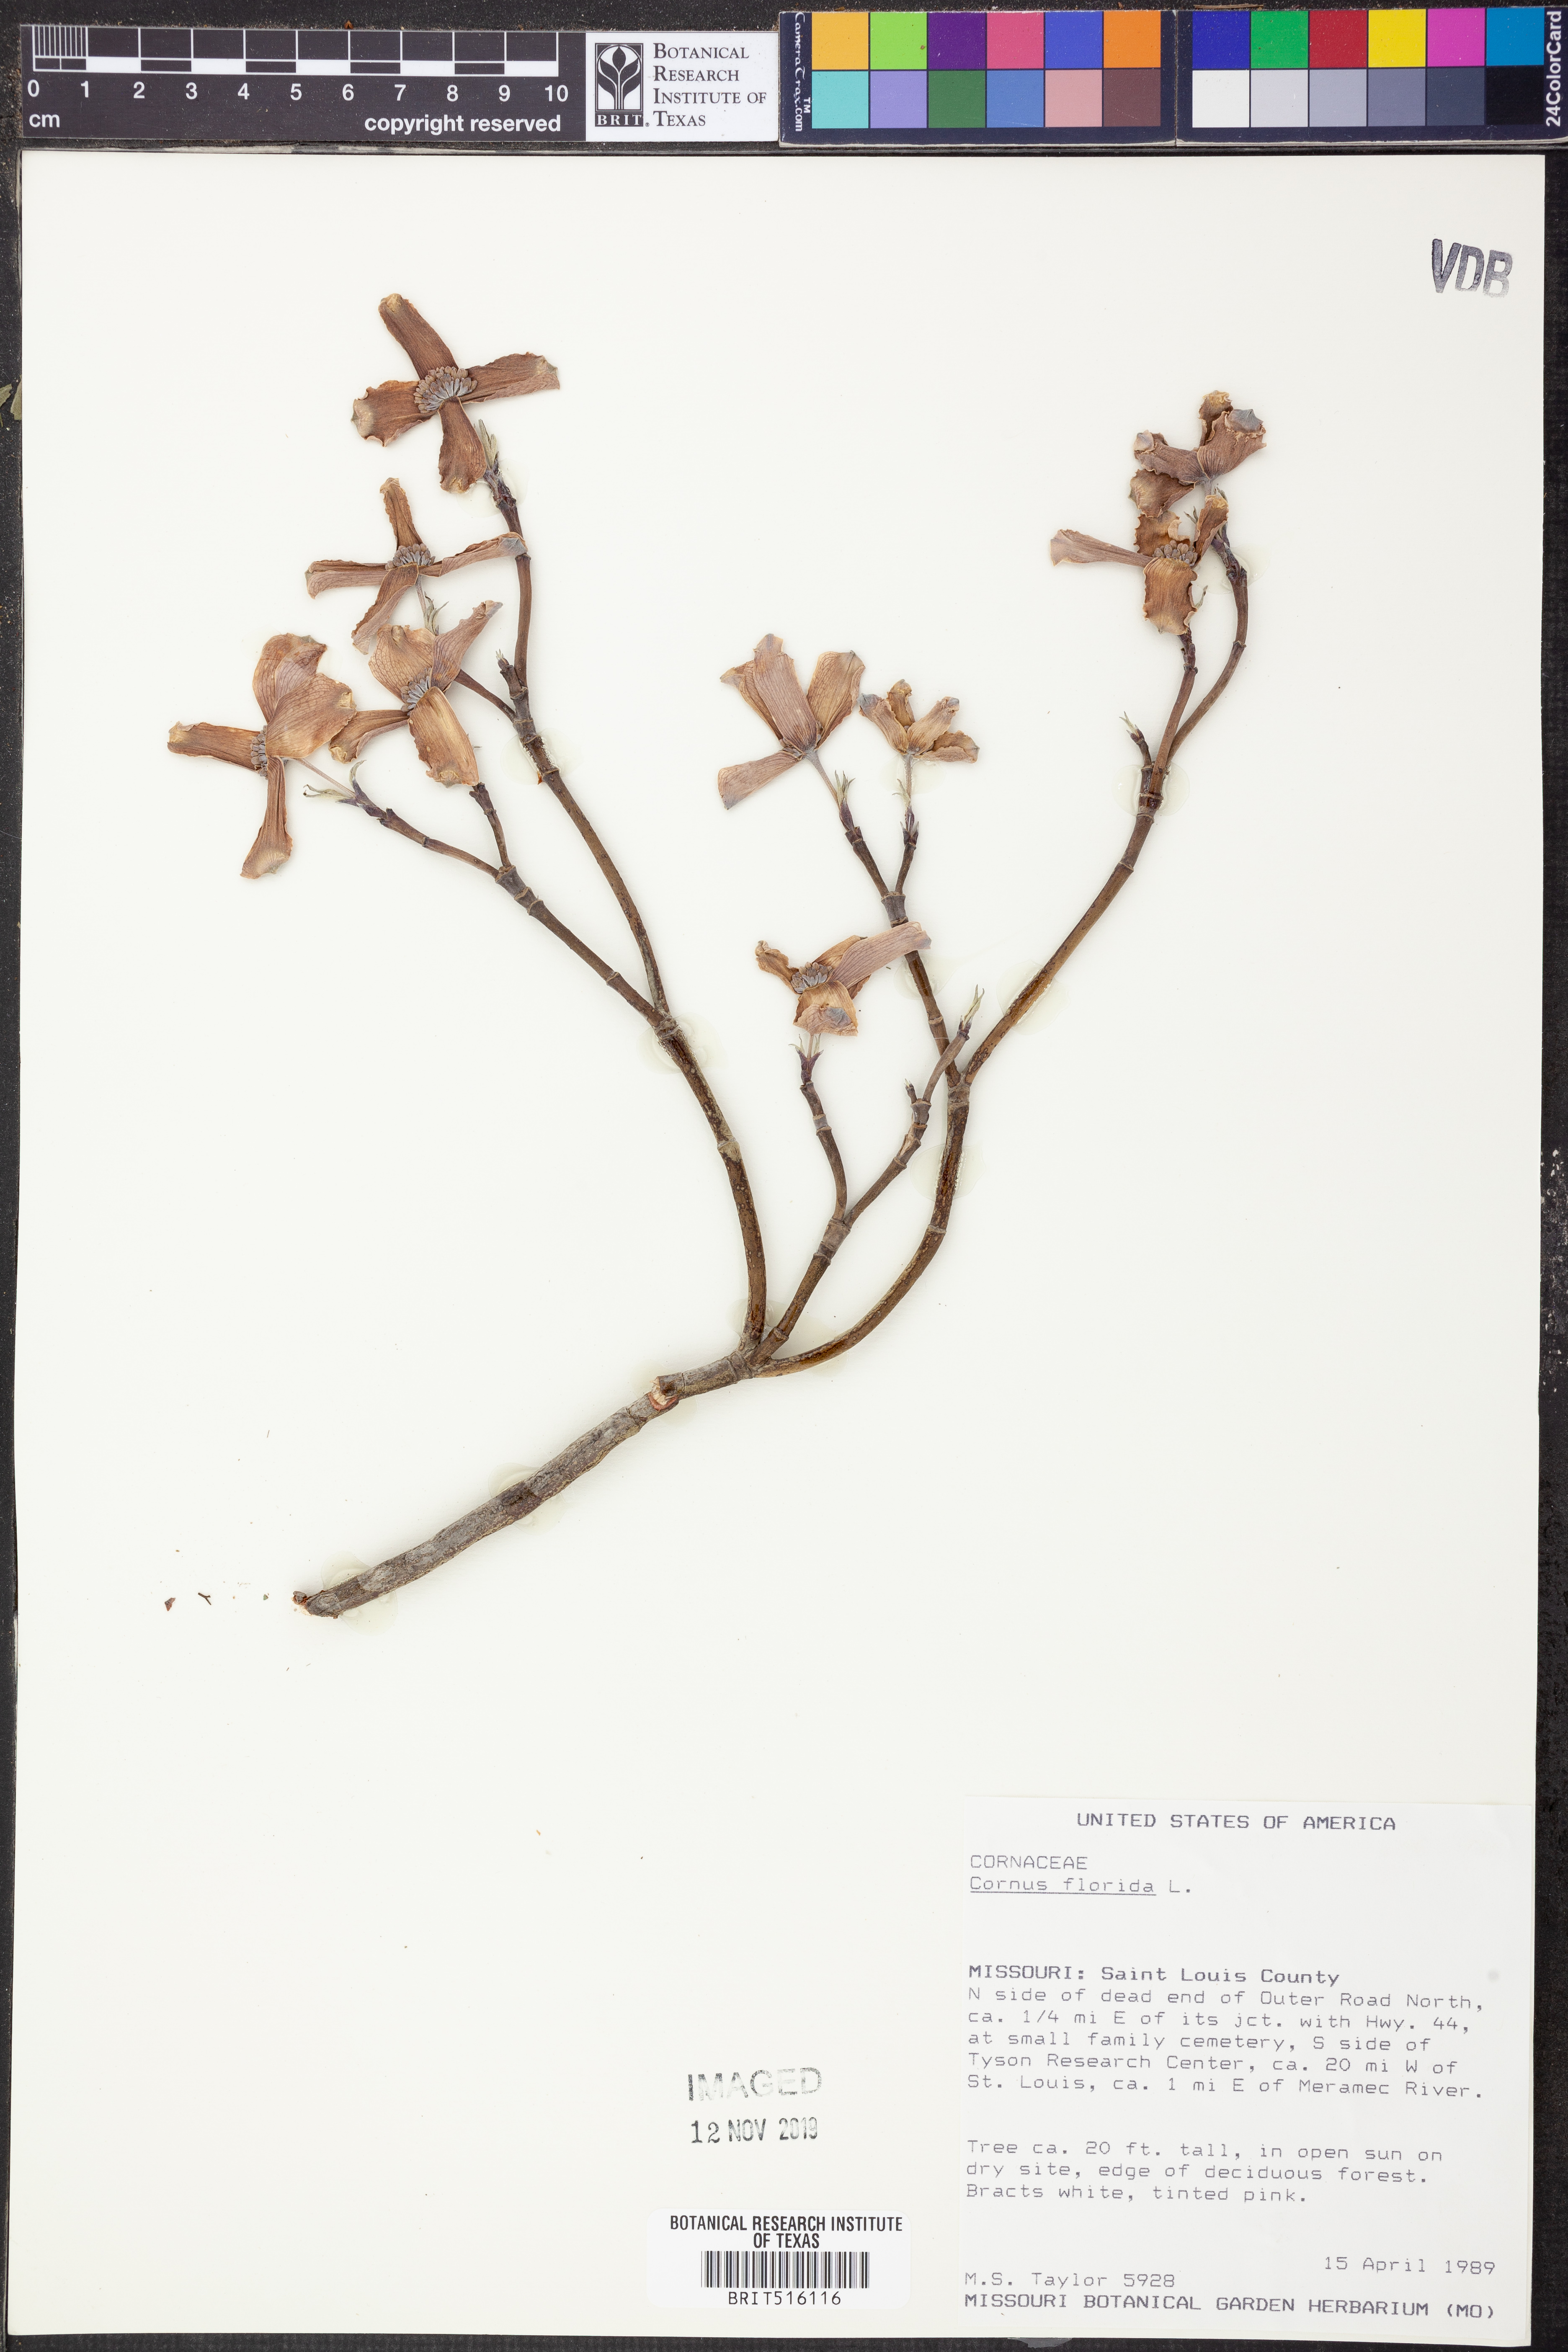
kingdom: Plantae
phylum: Tracheophyta
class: Magnoliopsida
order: Cornales
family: Cornaceae
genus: Cornus
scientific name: Cornus florida
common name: Flowering dogwood
